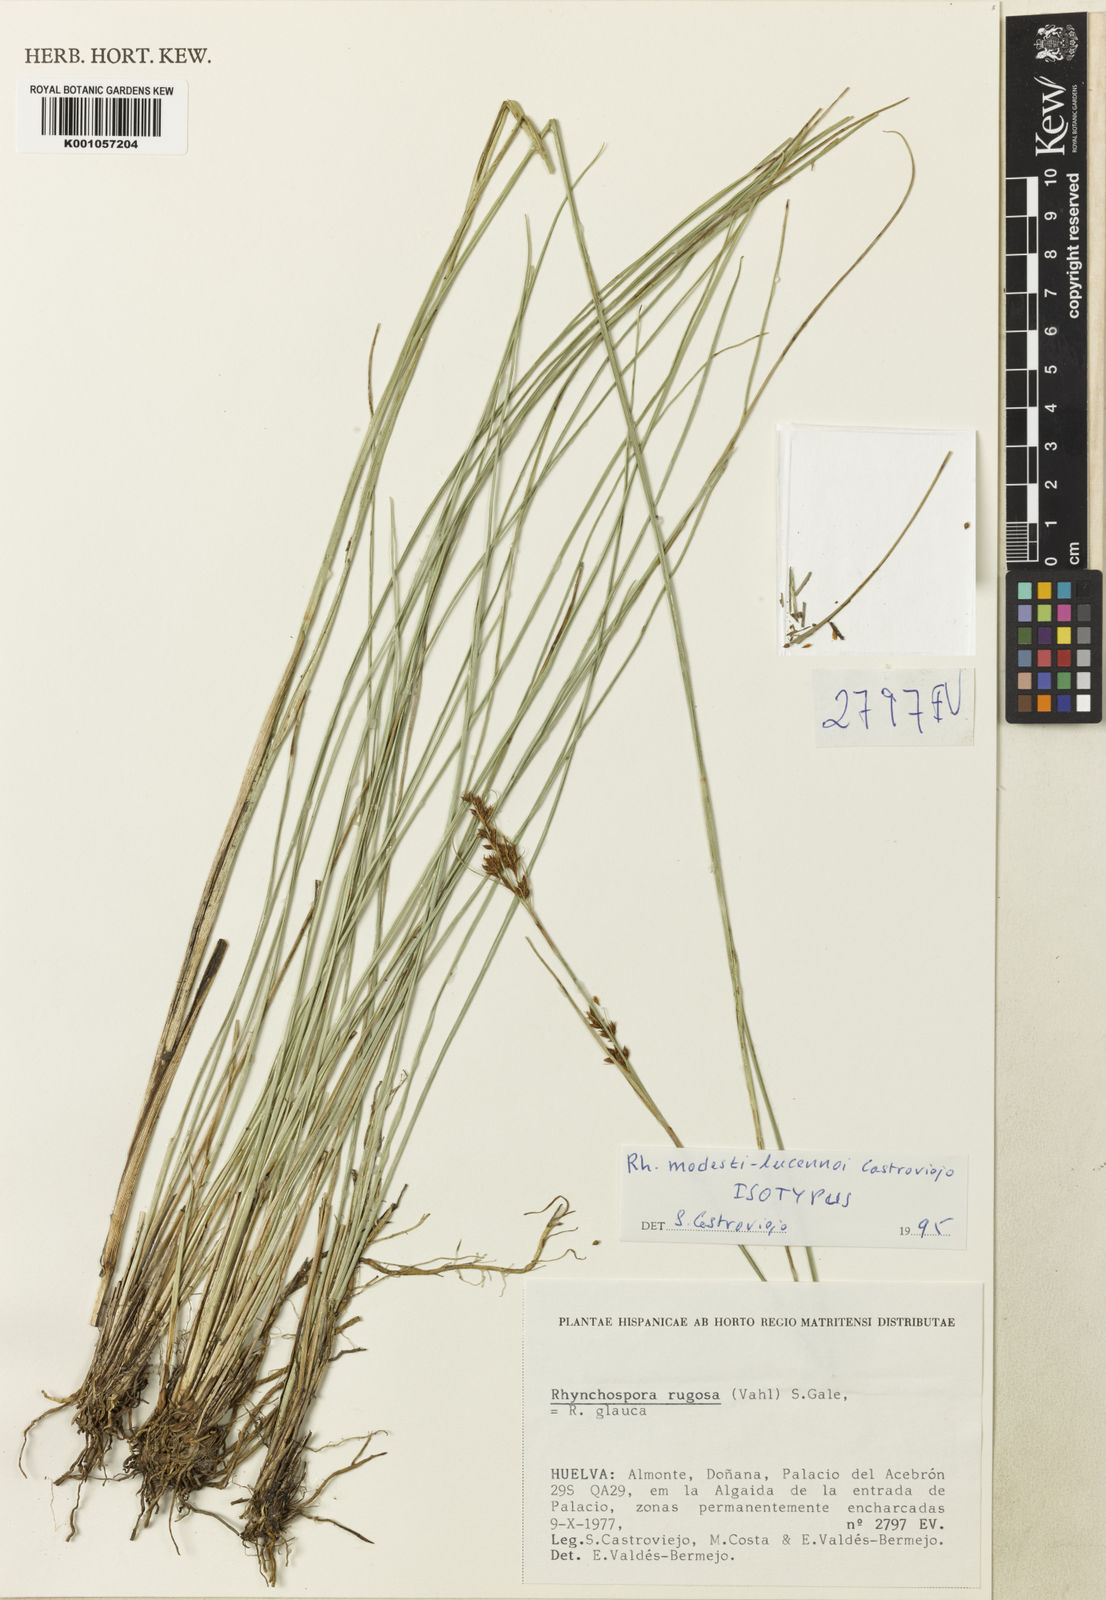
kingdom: Plantae
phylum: Tracheophyta
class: Liliopsida
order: Poales
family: Cyperaceae
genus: Rhynchospora
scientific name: Rhynchospora modesti-lucennoi
